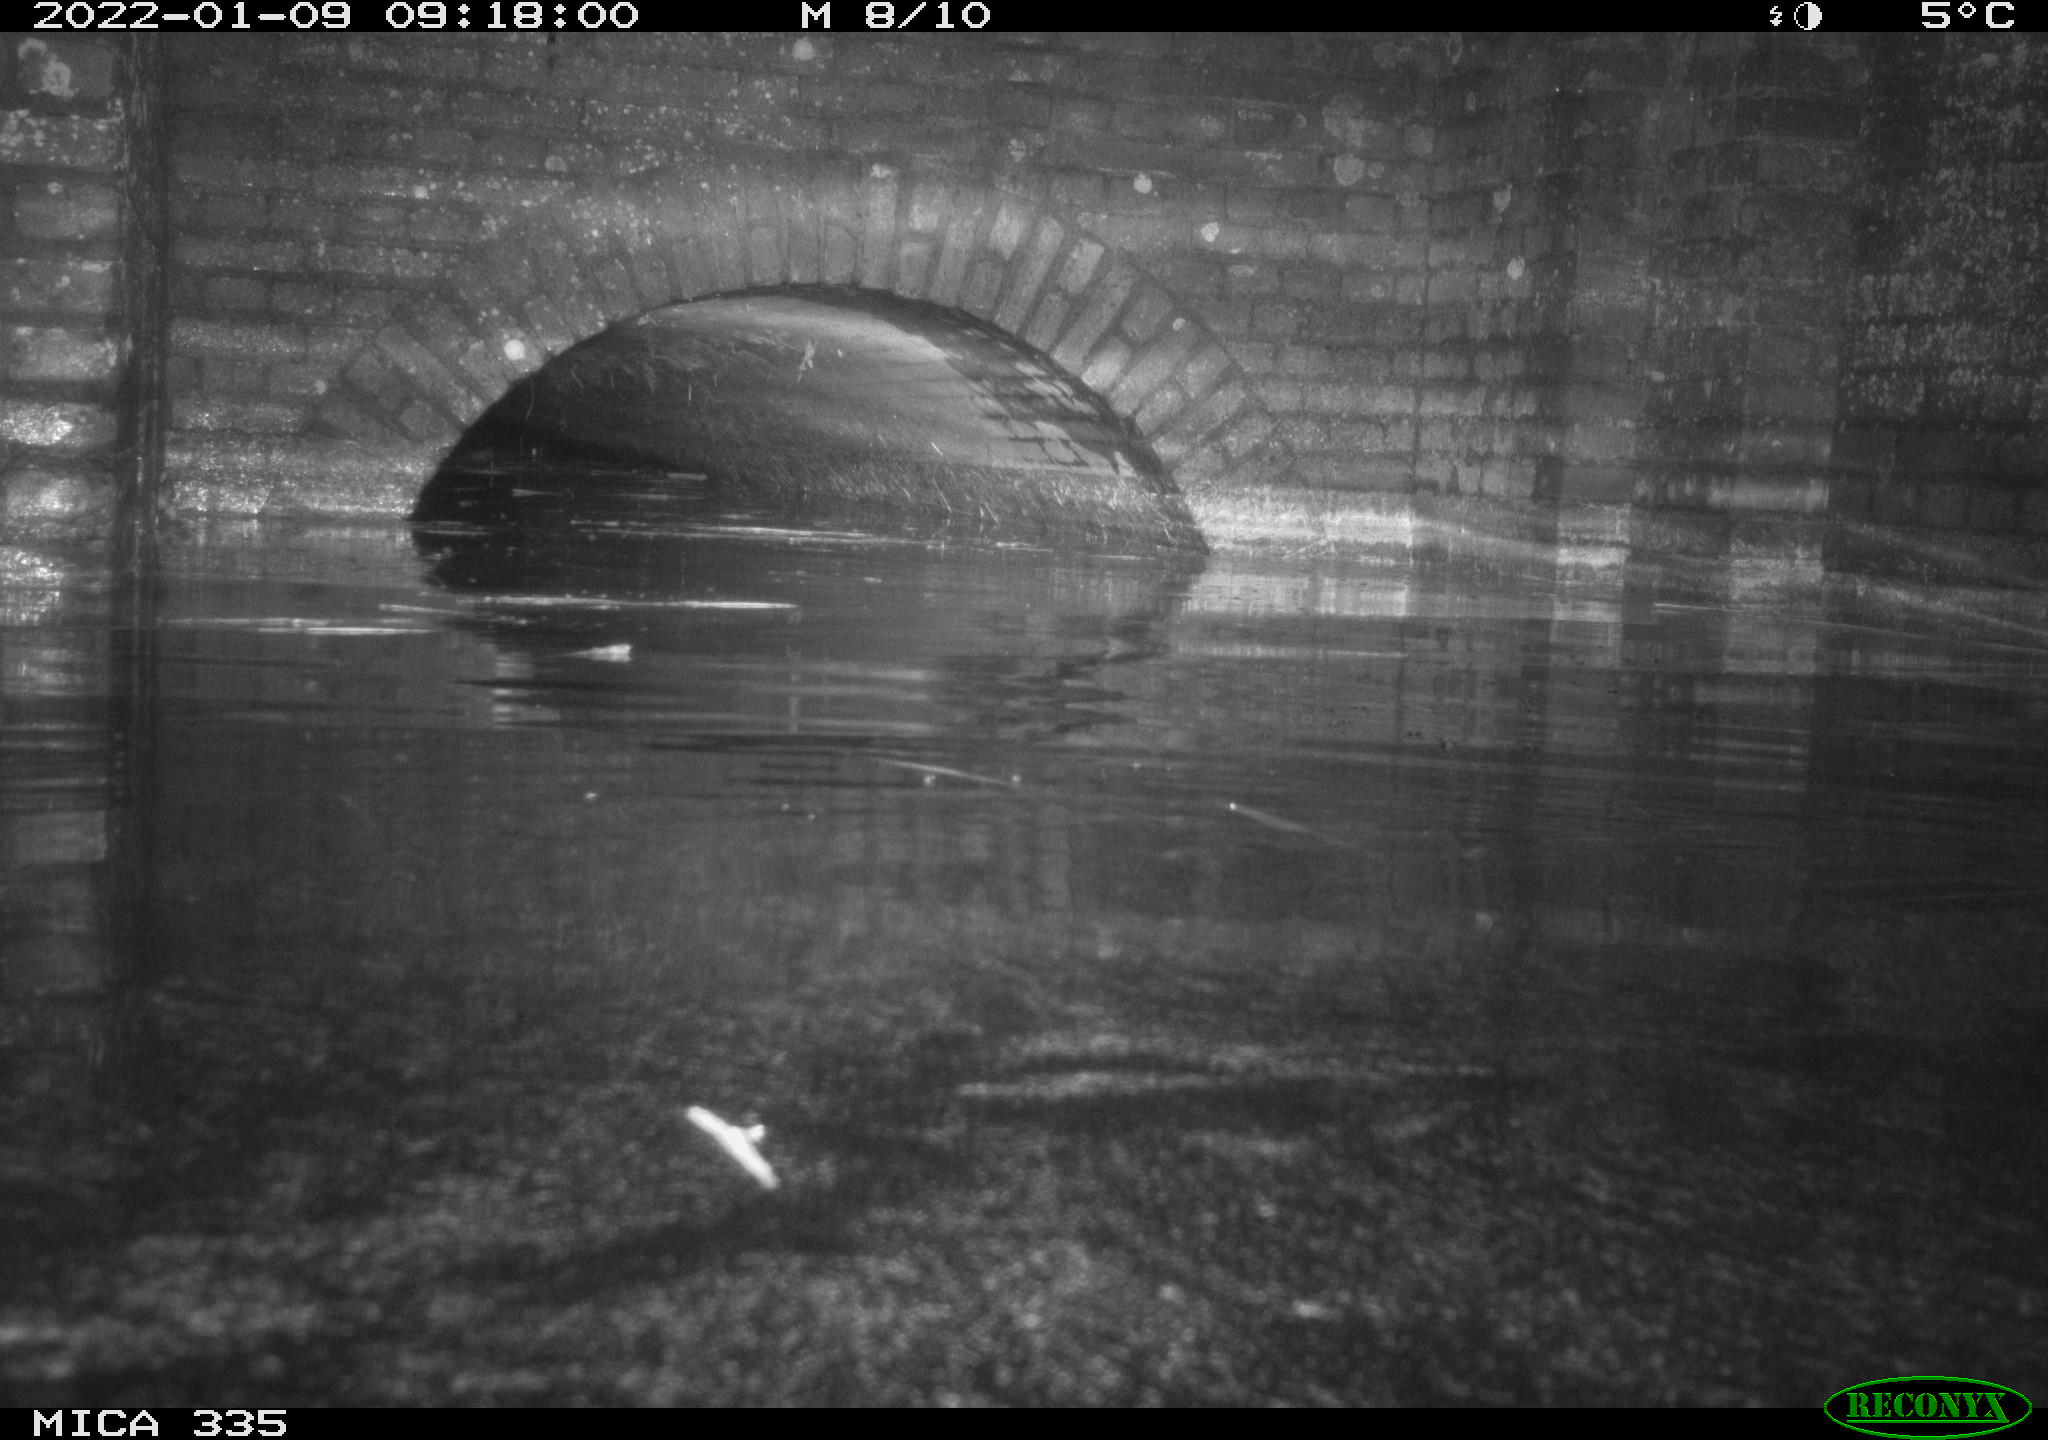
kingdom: Animalia
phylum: Chordata
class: Aves
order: Gruiformes
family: Rallidae
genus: Gallinula
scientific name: Gallinula chloropus
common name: Common moorhen
